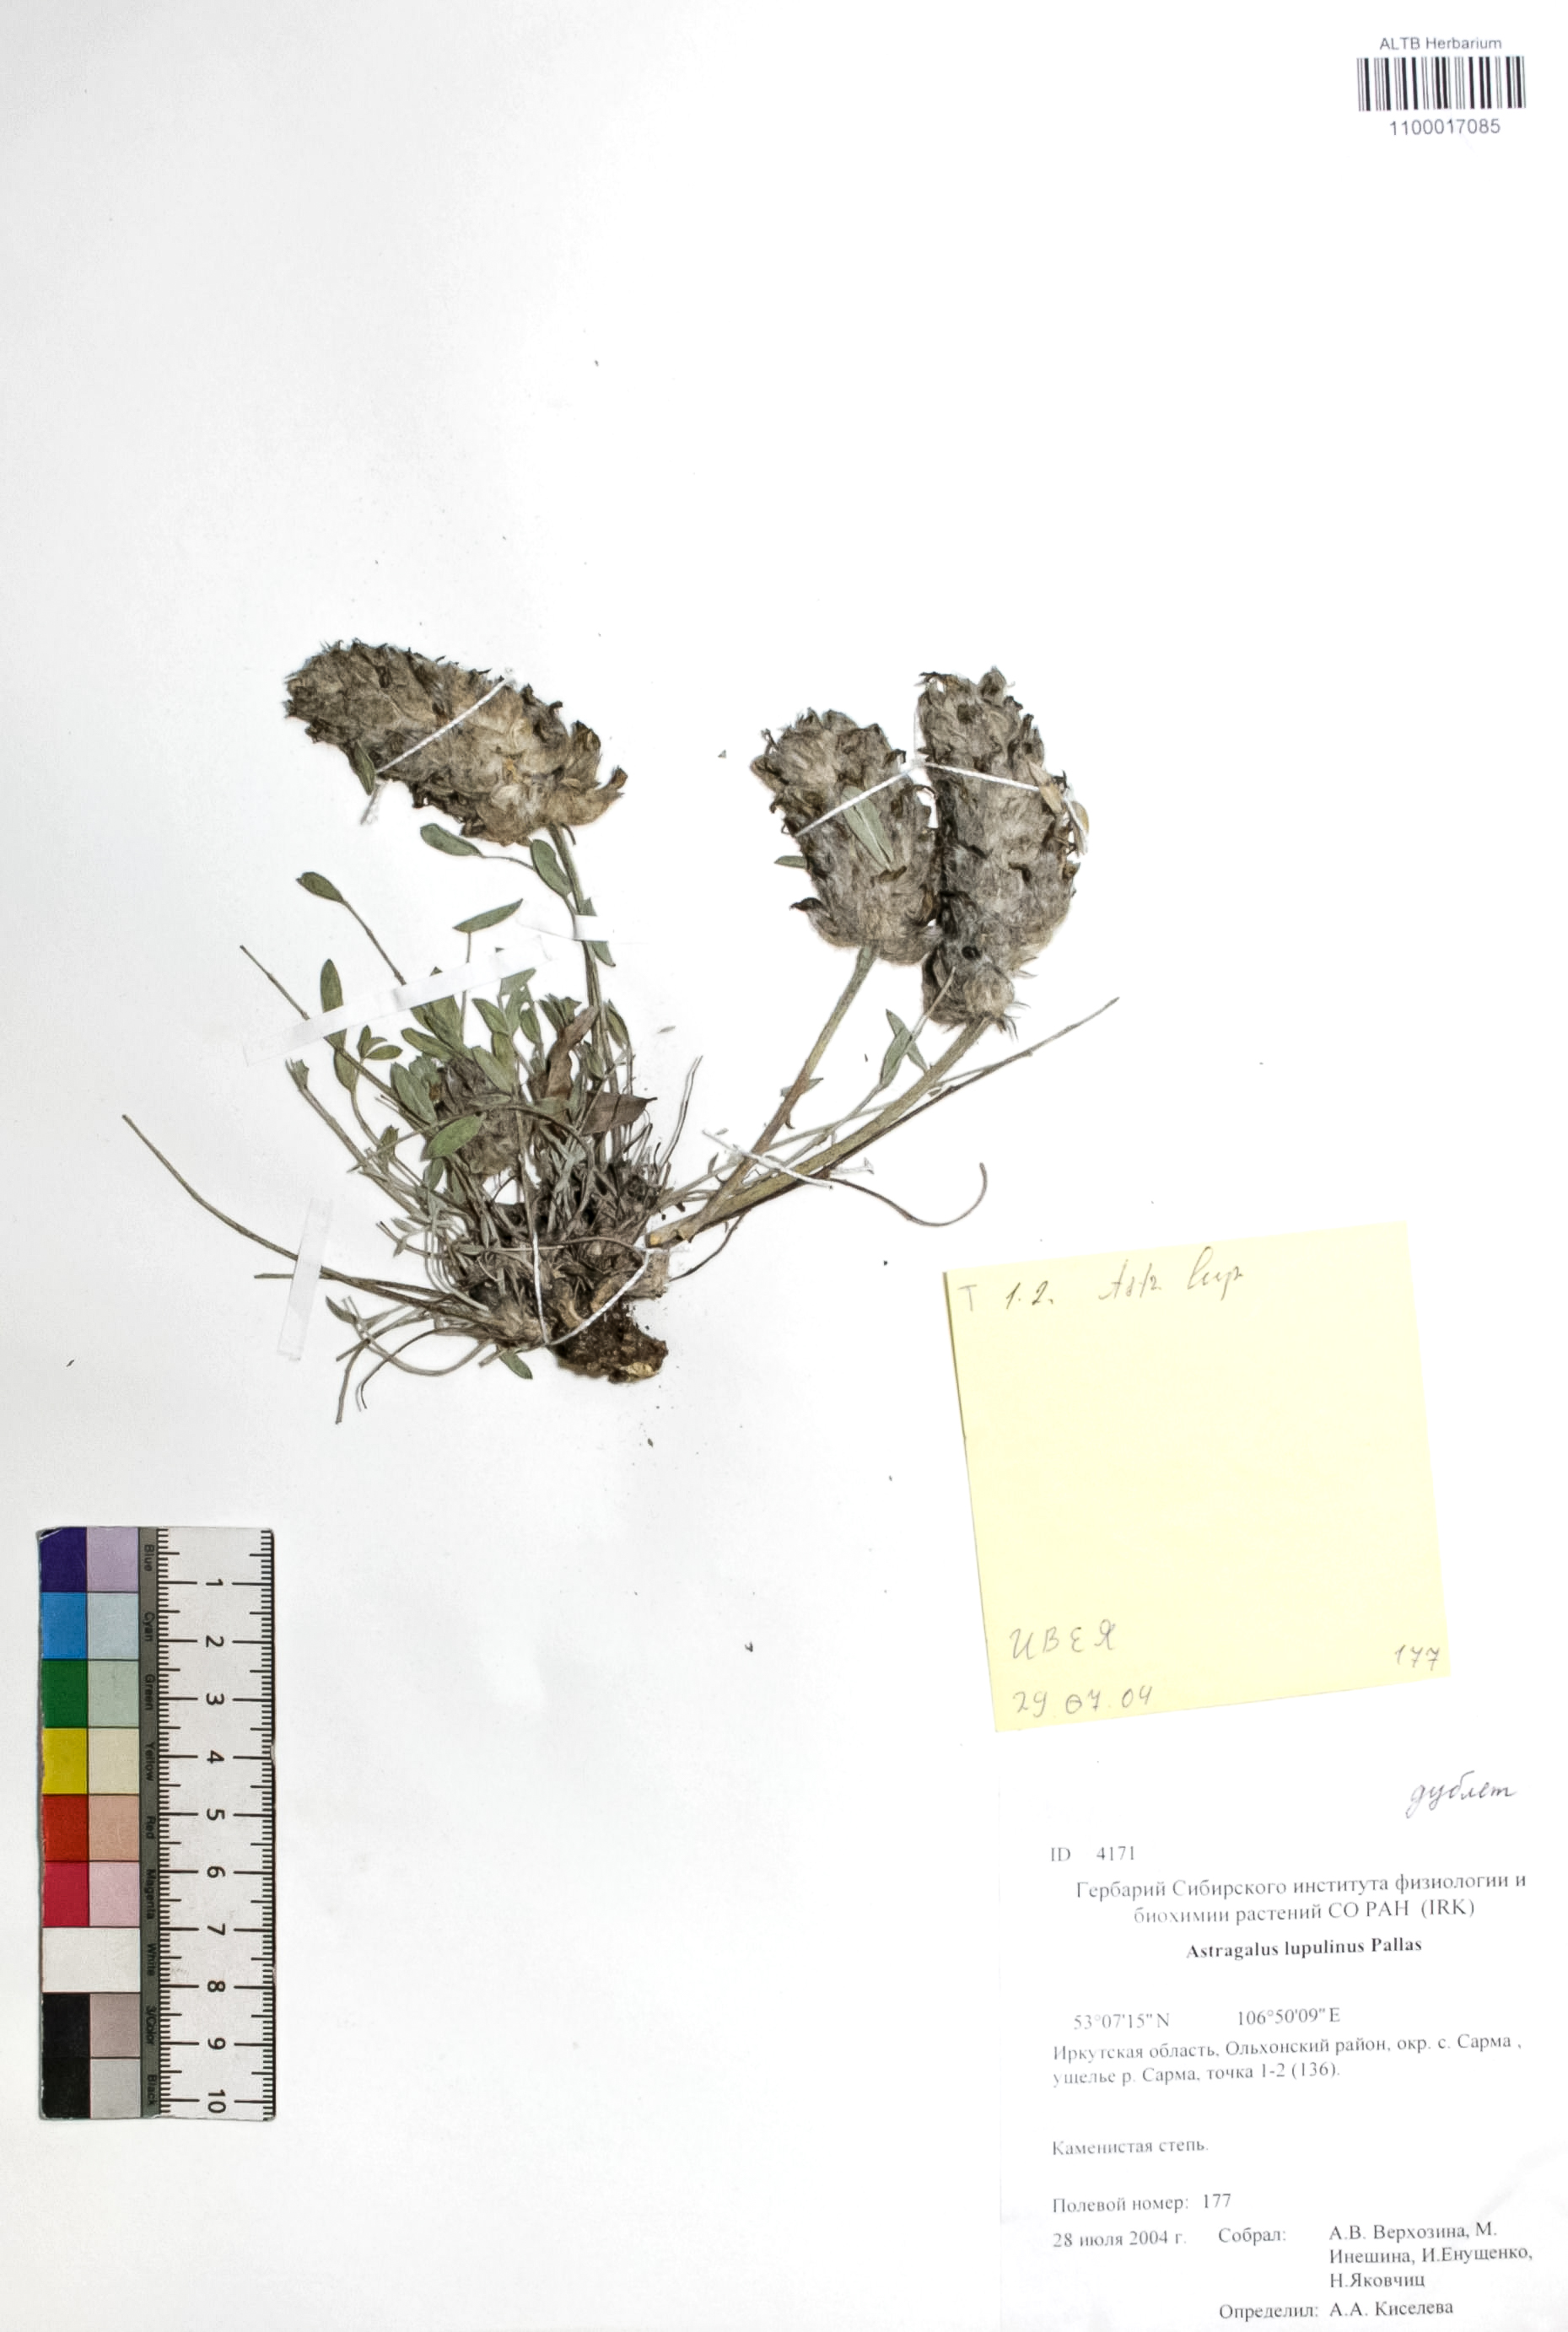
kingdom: Plantae
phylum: Tracheophyta
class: Magnoliopsida
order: Fabales
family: Fabaceae
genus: Astragalus
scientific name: Astragalus lupulinus
